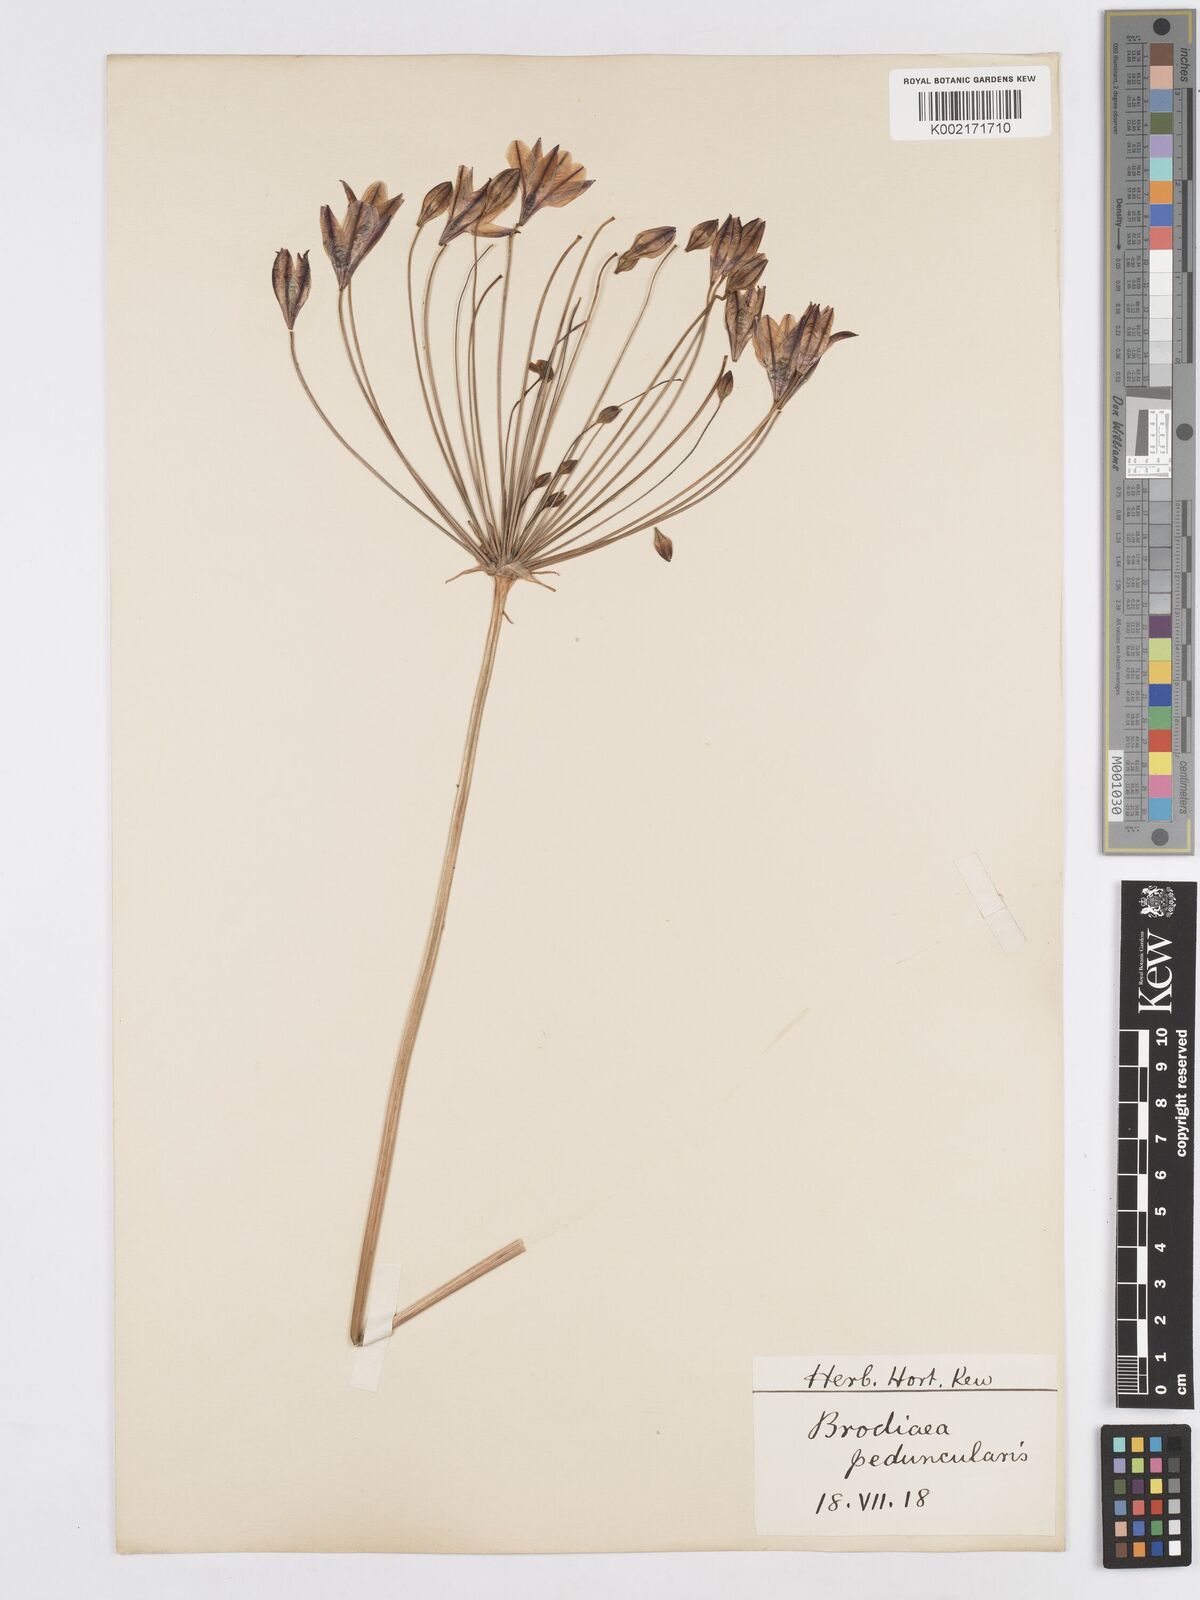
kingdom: Plantae
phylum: Tracheophyta
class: Liliopsida
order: Asparagales
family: Asparagaceae
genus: Triteleia
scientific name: Triteleia peduncularis
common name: Long-ray brodiaea
